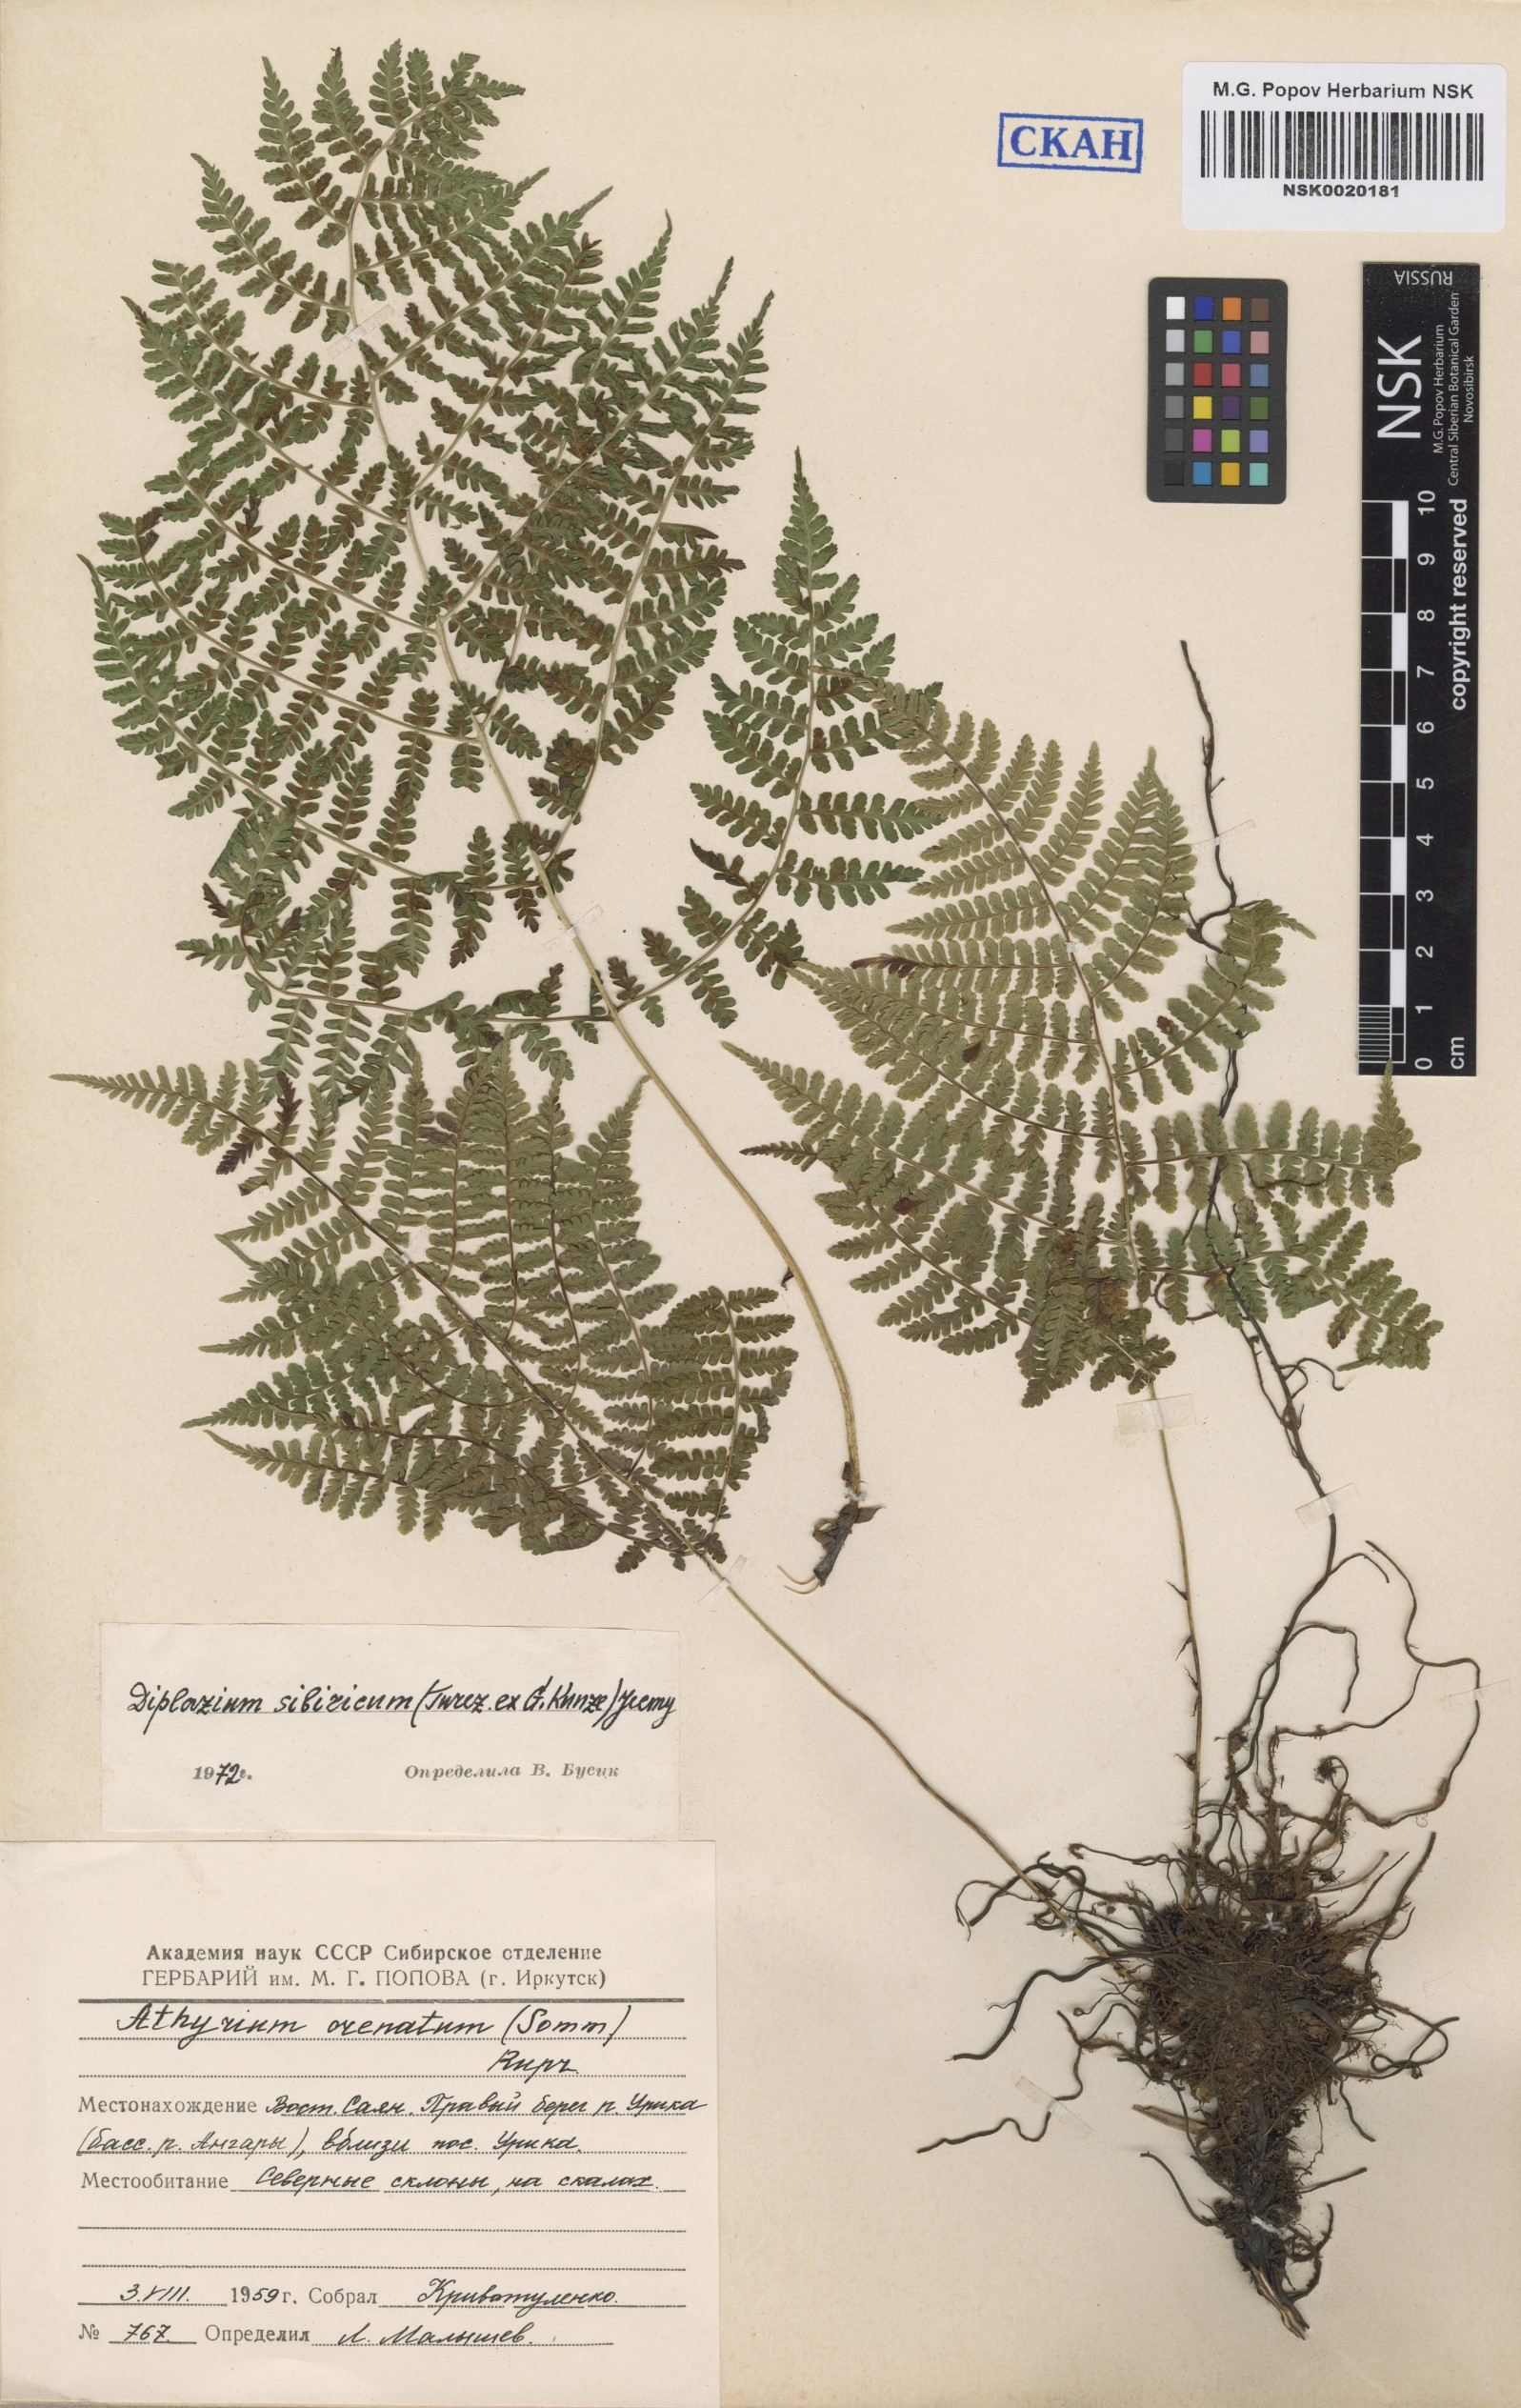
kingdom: Plantae
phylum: Tracheophyta
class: Polypodiopsida
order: Polypodiales
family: Athyriaceae
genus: Diplazium
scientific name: Diplazium sibiricum
